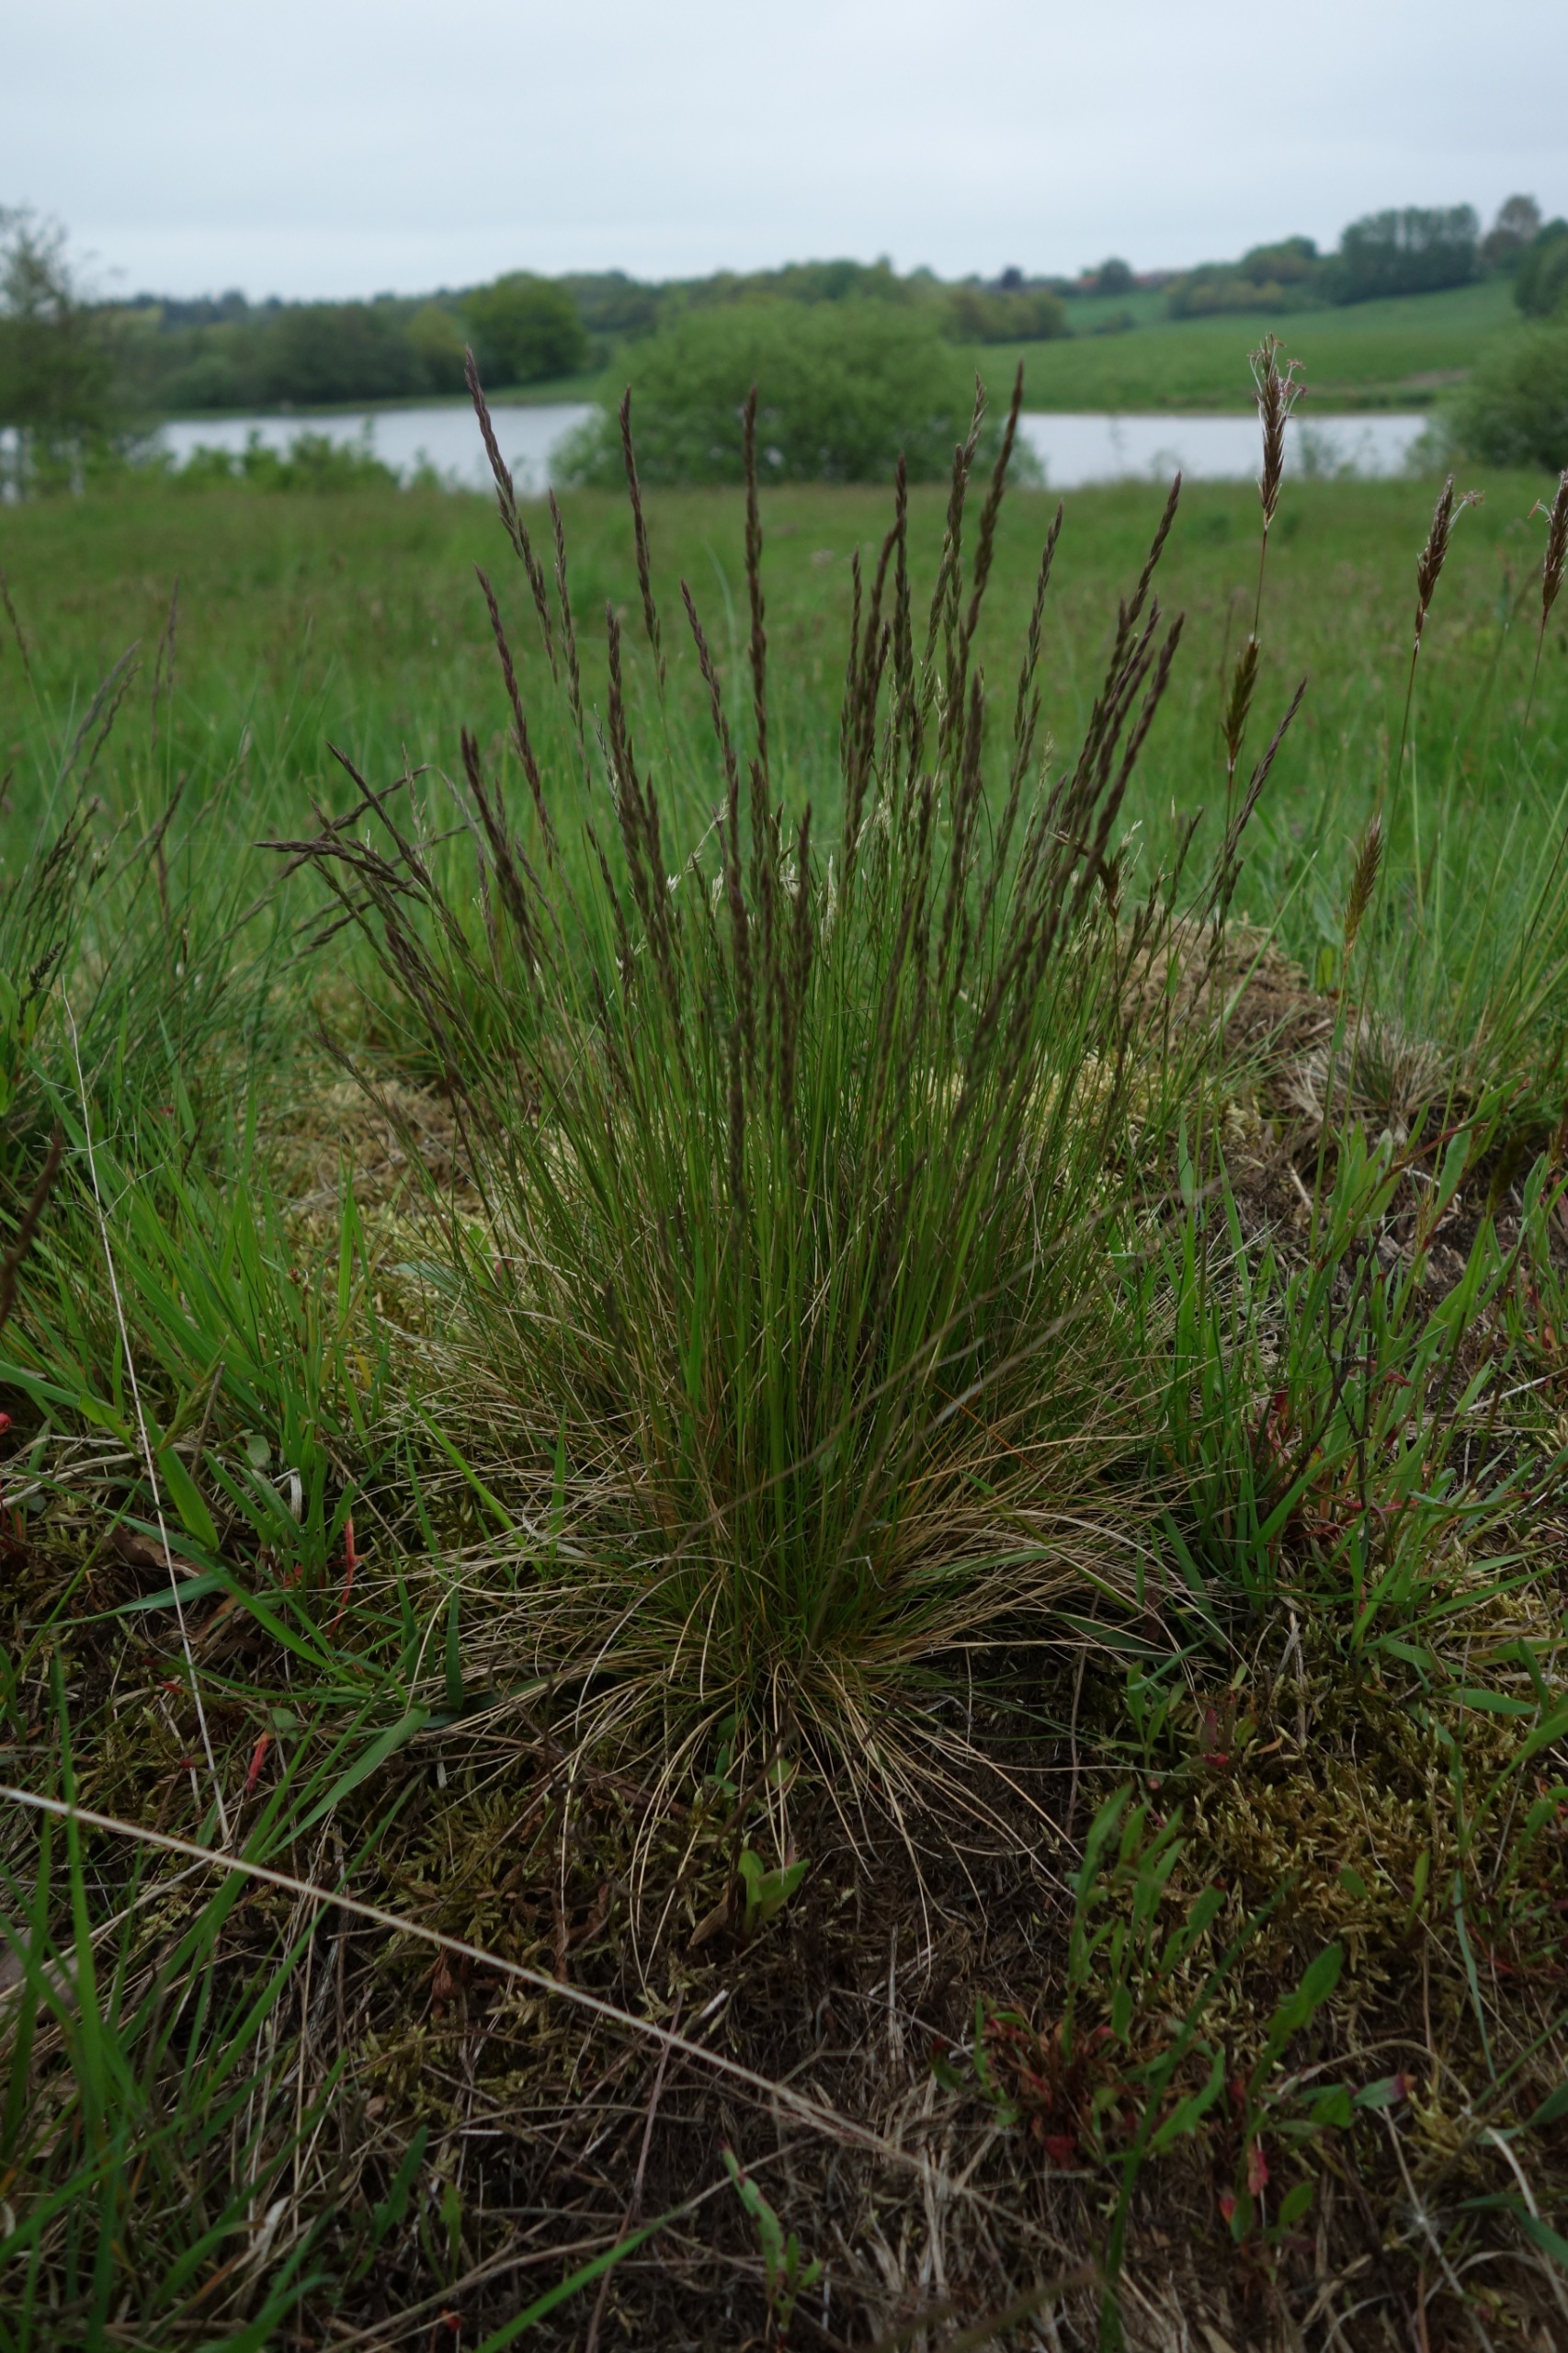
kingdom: Plantae
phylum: Tracheophyta
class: Liliopsida
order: Poales
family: Poaceae
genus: Festuca
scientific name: Festuca ovina
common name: Fåre-svingel
